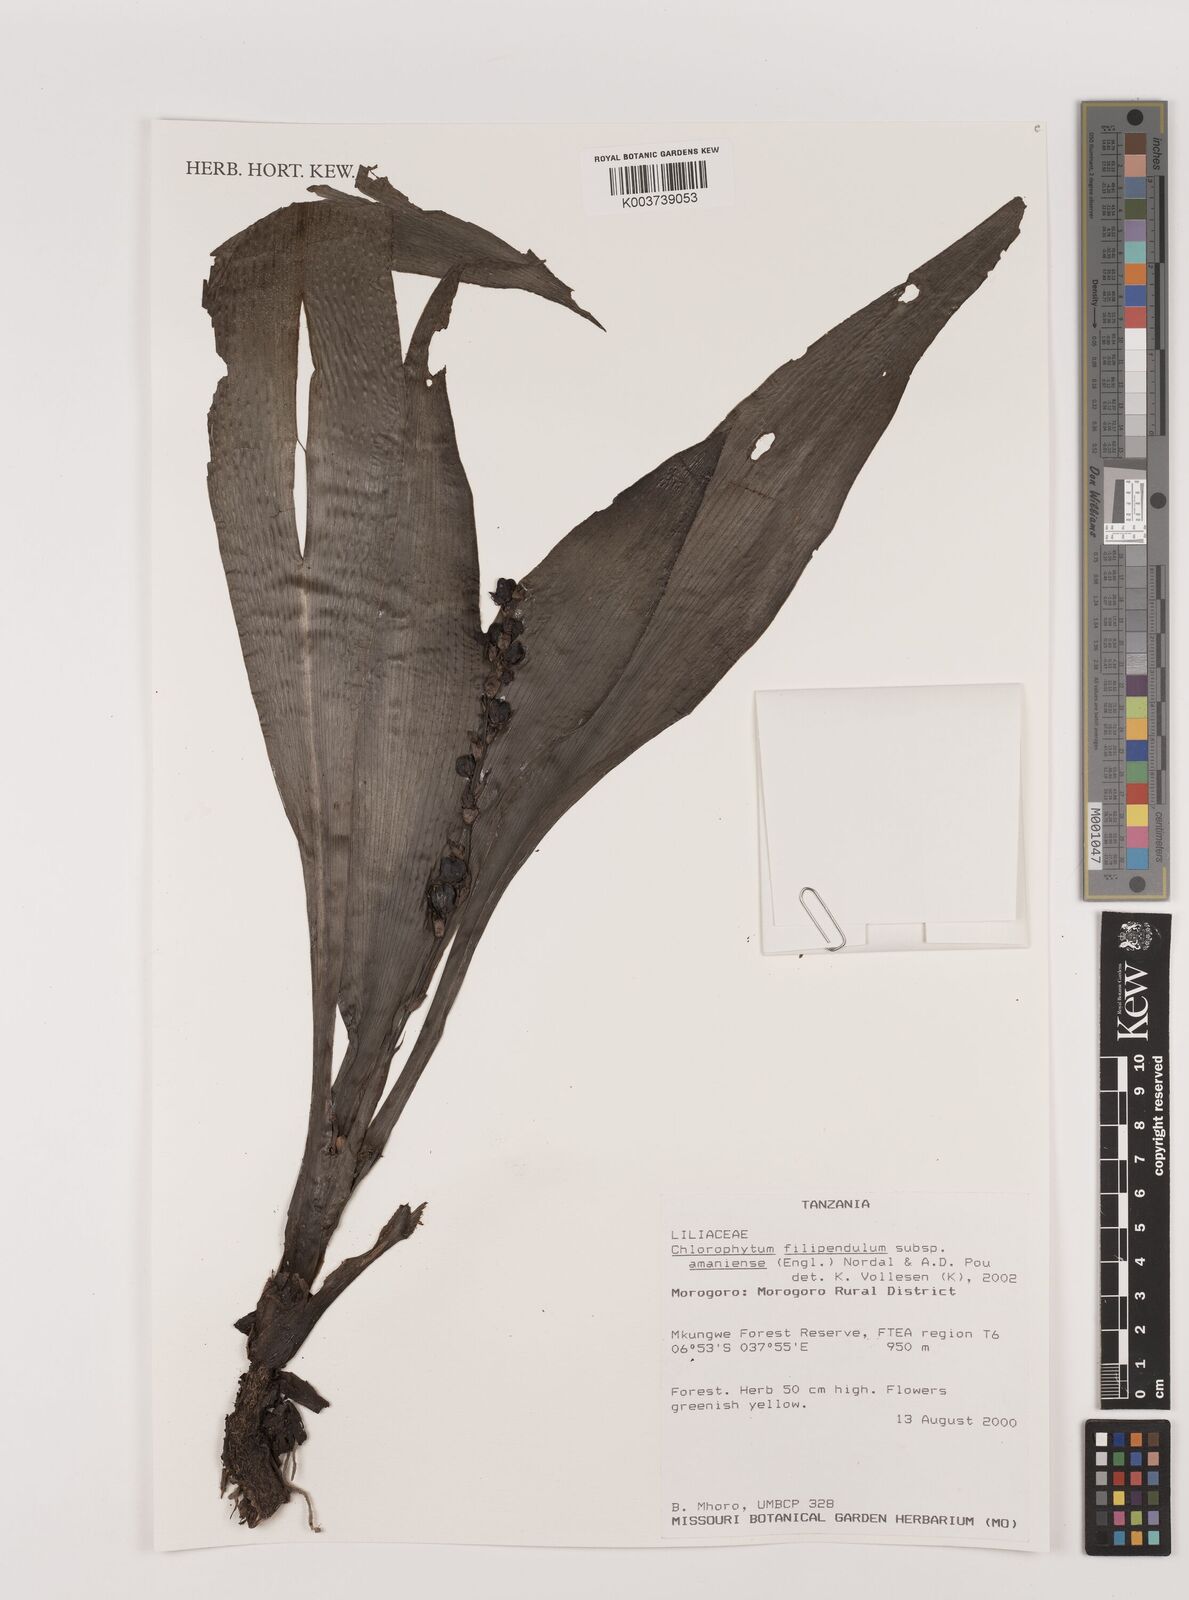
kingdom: Plantae
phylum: Tracheophyta
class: Liliopsida
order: Asparagales
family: Asparagaceae
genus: Chlorophytum
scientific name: Chlorophytum filipendulum
